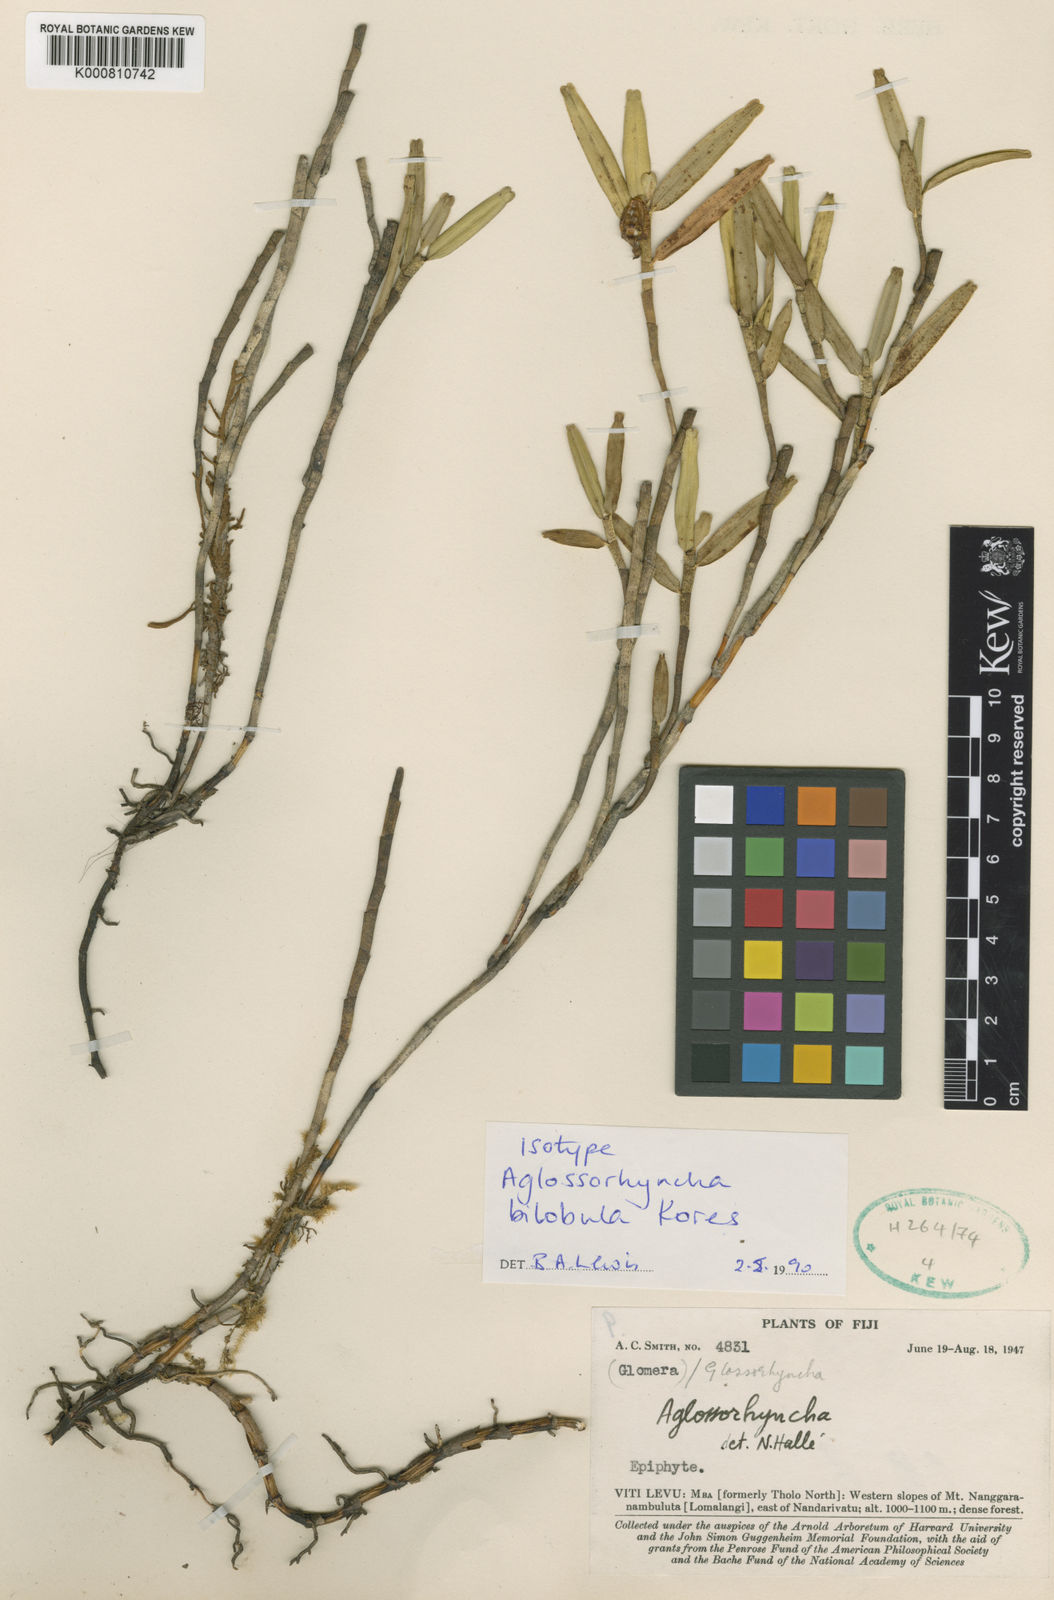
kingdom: Plantae
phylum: Tracheophyta
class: Liliopsida
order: Asparagales
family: Orchidaceae
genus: Aglossorrhyncha
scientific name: Aglossorrhyncha bilobula
